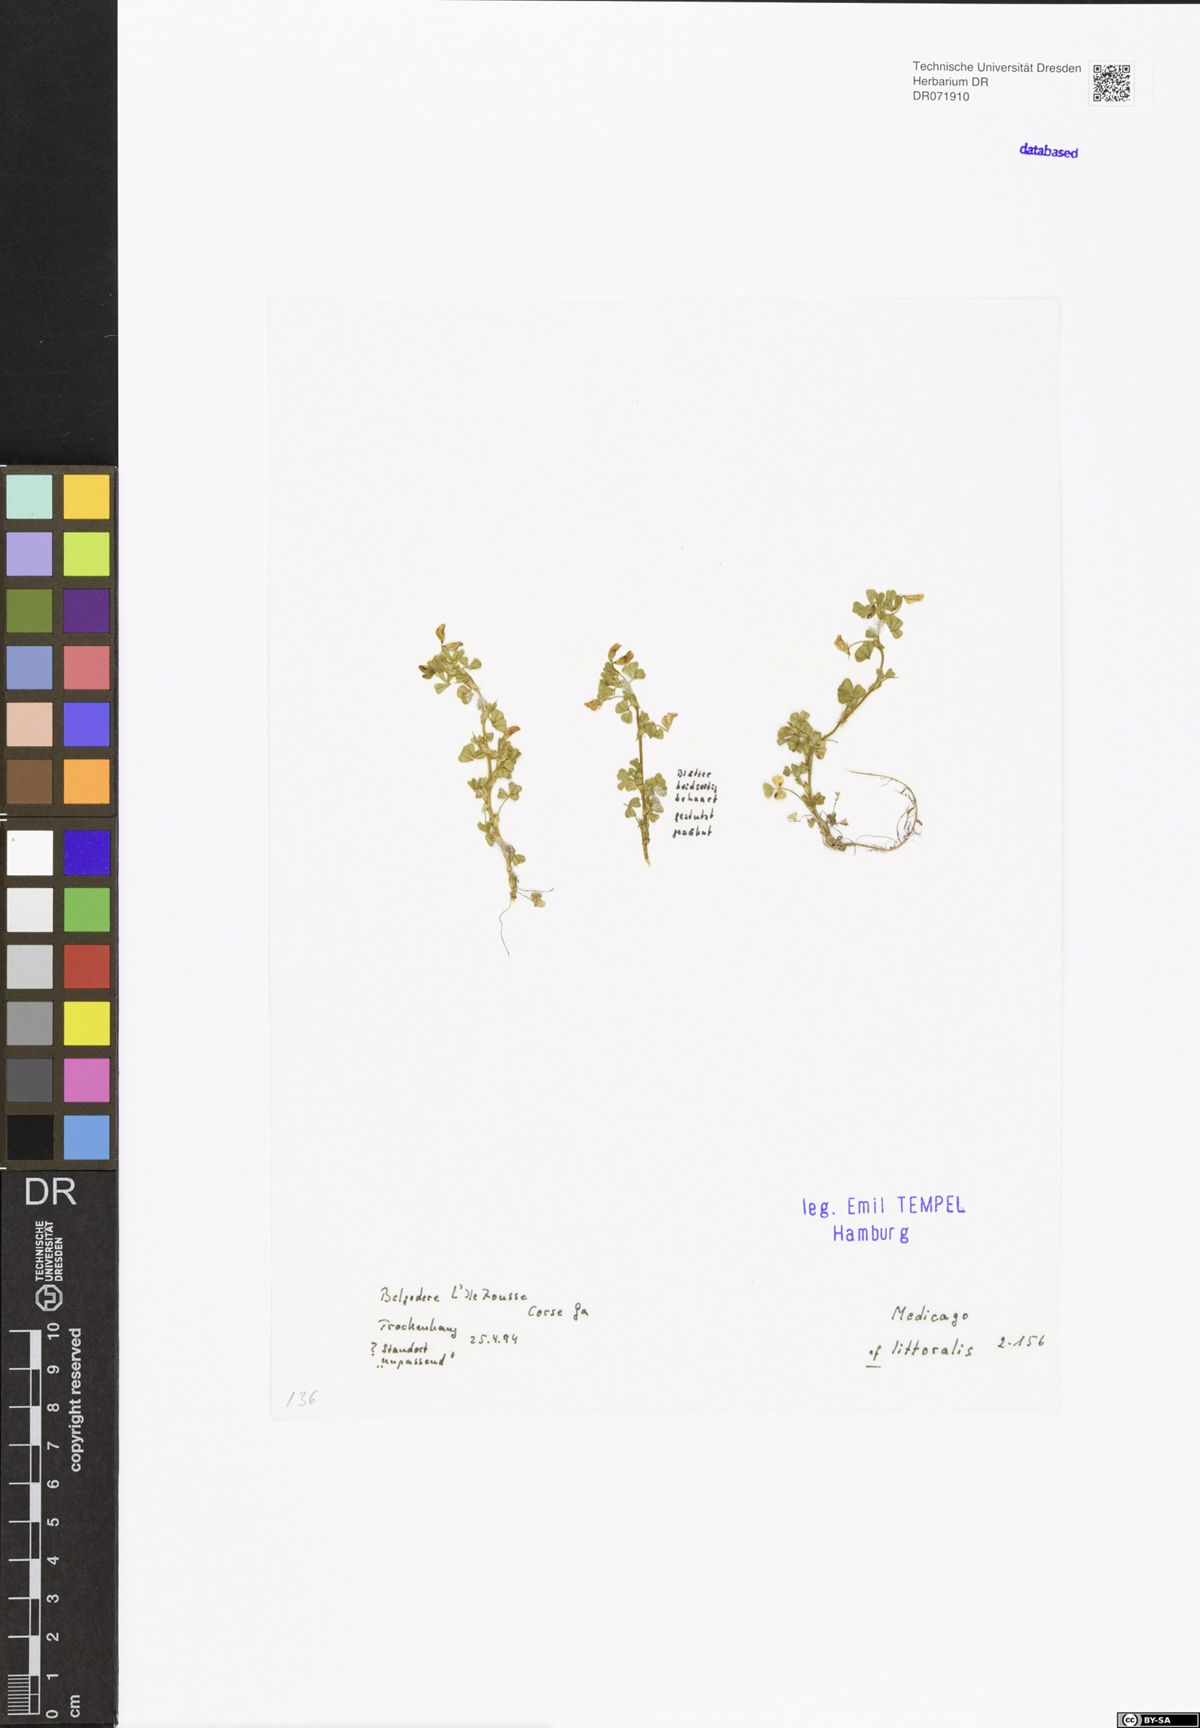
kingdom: Plantae
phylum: Tracheophyta
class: Magnoliopsida
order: Fabales
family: Fabaceae
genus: Medicago
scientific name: Medicago littoralis
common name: Shore medick
